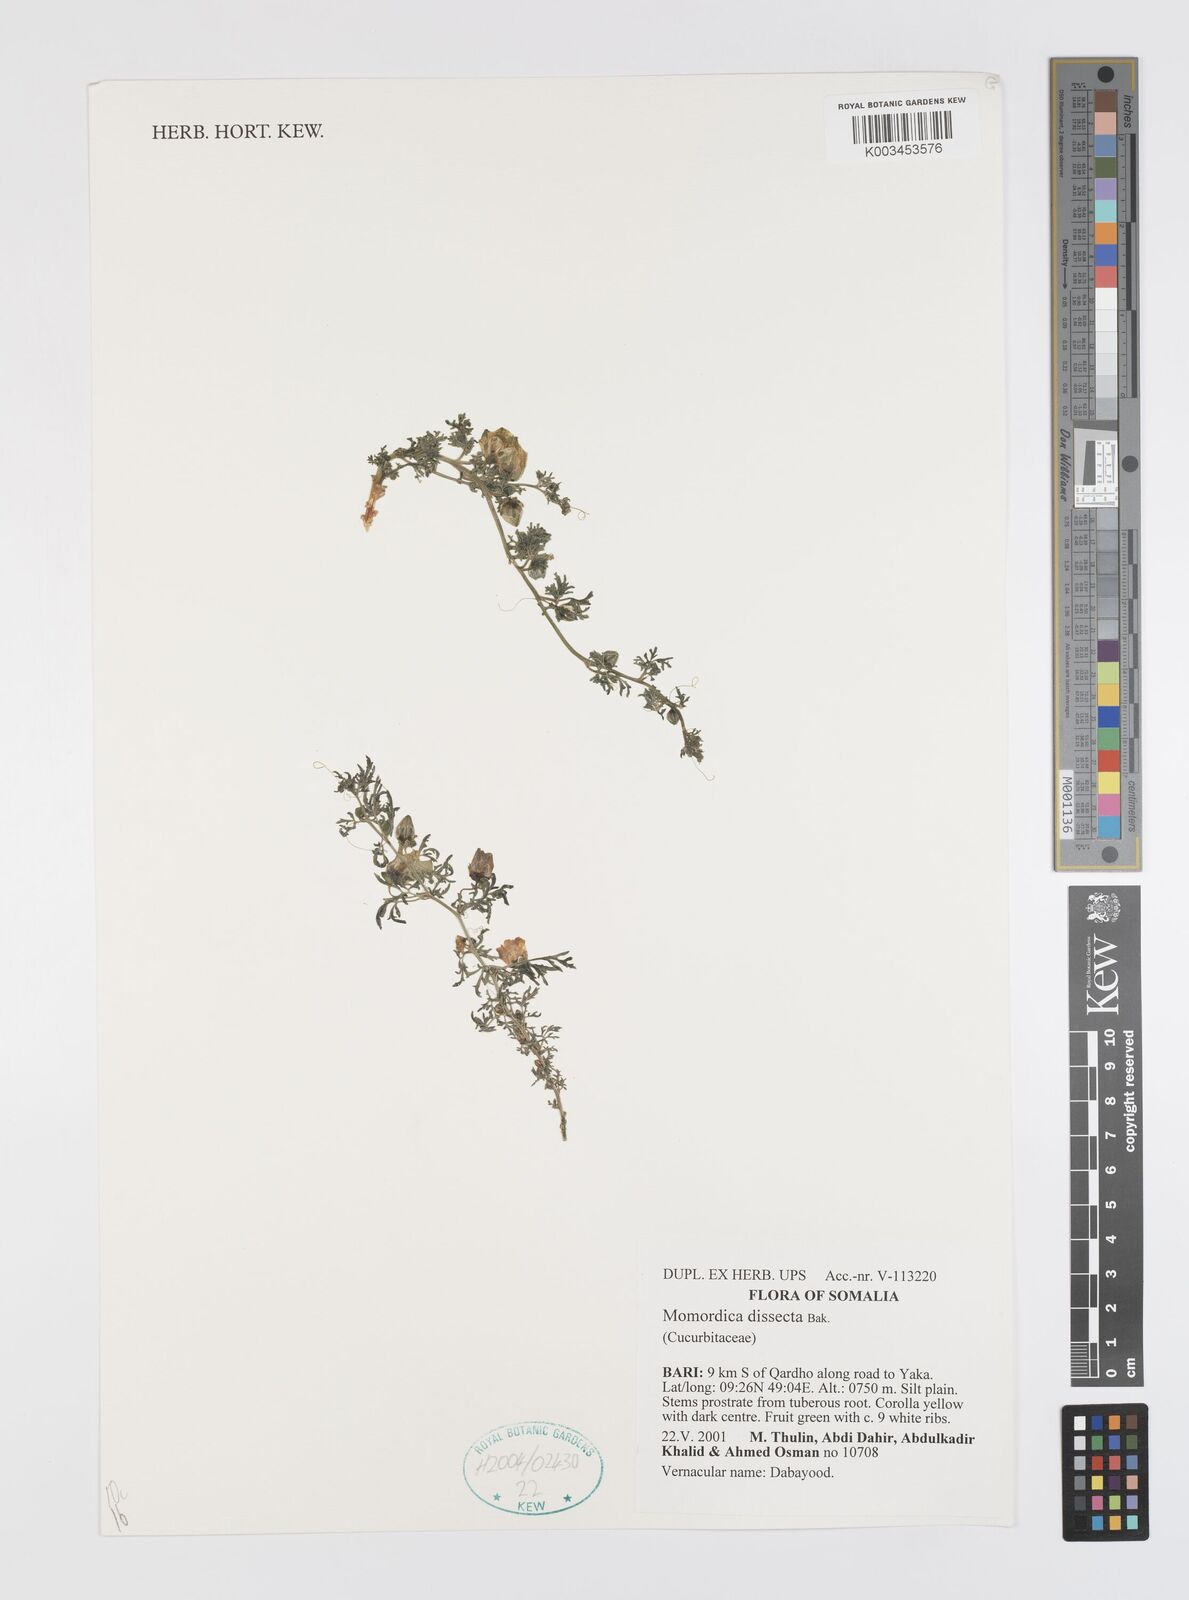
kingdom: Plantae
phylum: Tracheophyta
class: Magnoliopsida
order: Cucurbitales
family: Cucurbitaceae
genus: Momordica
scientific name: Momordica dissecta
